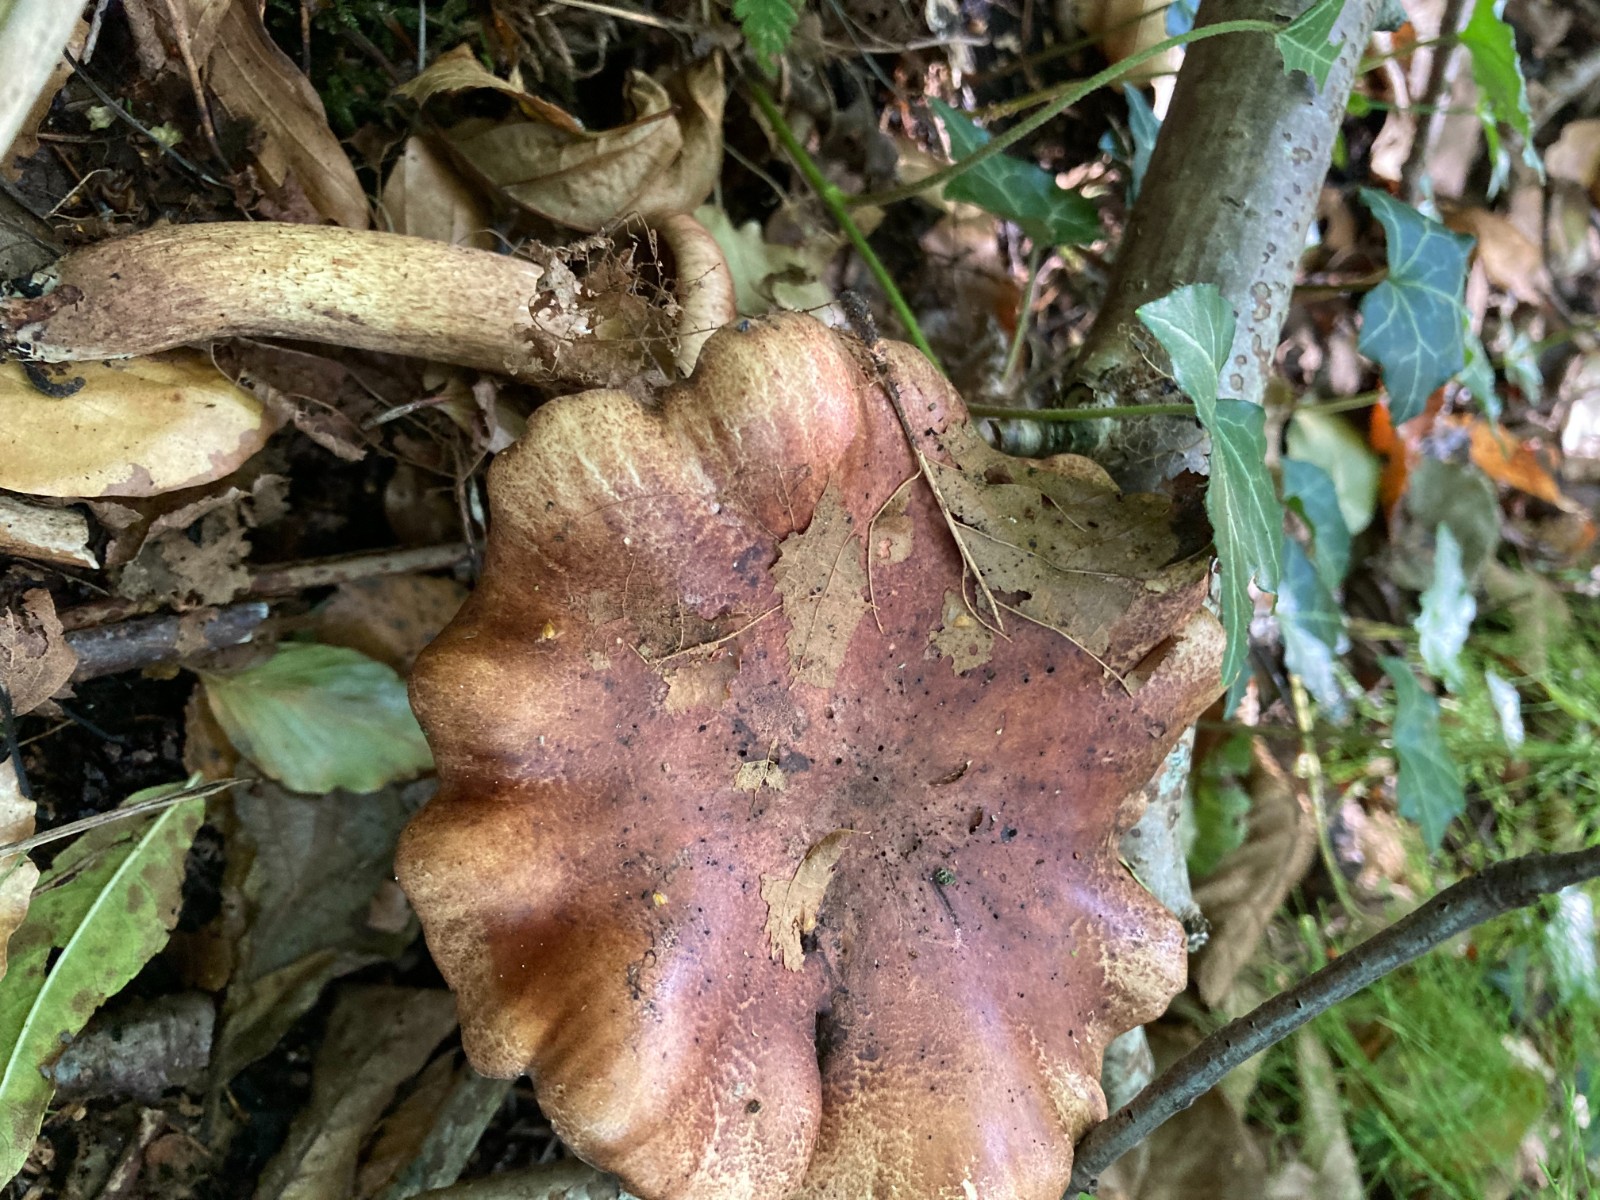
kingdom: Fungi
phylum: Basidiomycota
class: Agaricomycetes
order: Agaricales
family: Tricholomataceae
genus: Tricholoma
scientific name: Tricholoma fulvum
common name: birke-ridderhat
